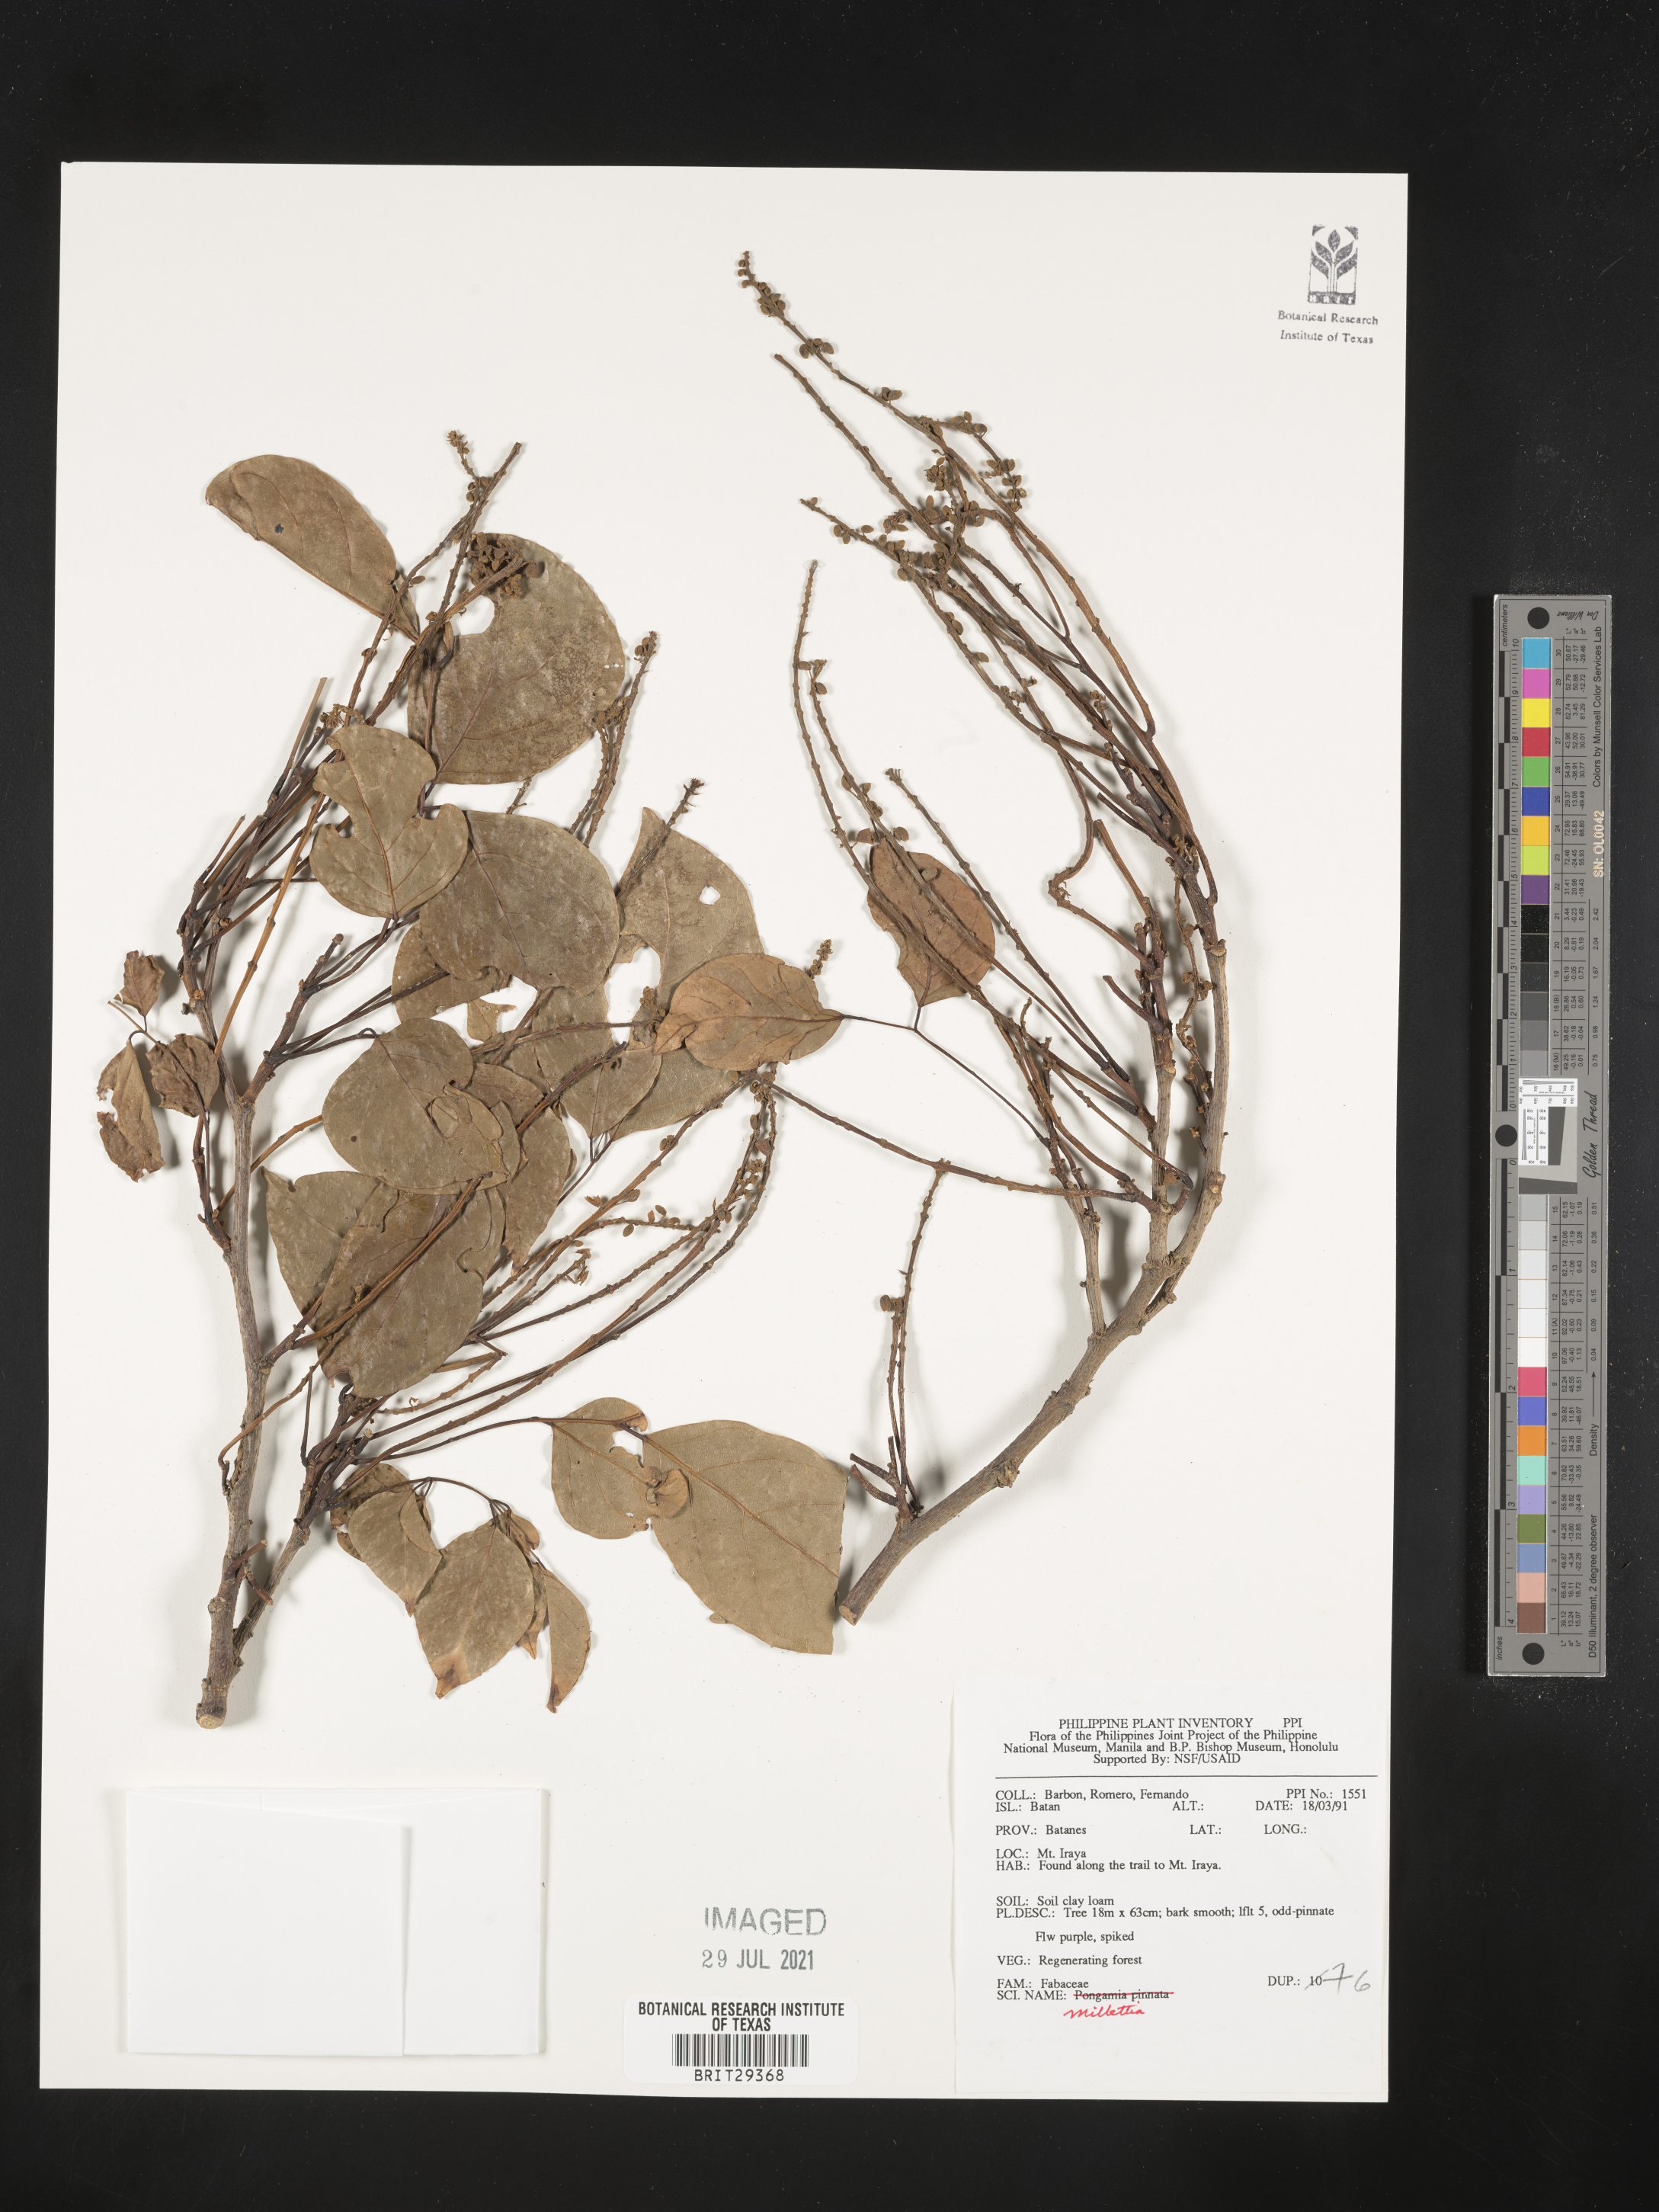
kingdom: Plantae
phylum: Tracheophyta
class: Magnoliopsida
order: Fabales
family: Fabaceae
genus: Millettia
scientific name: Millettia
